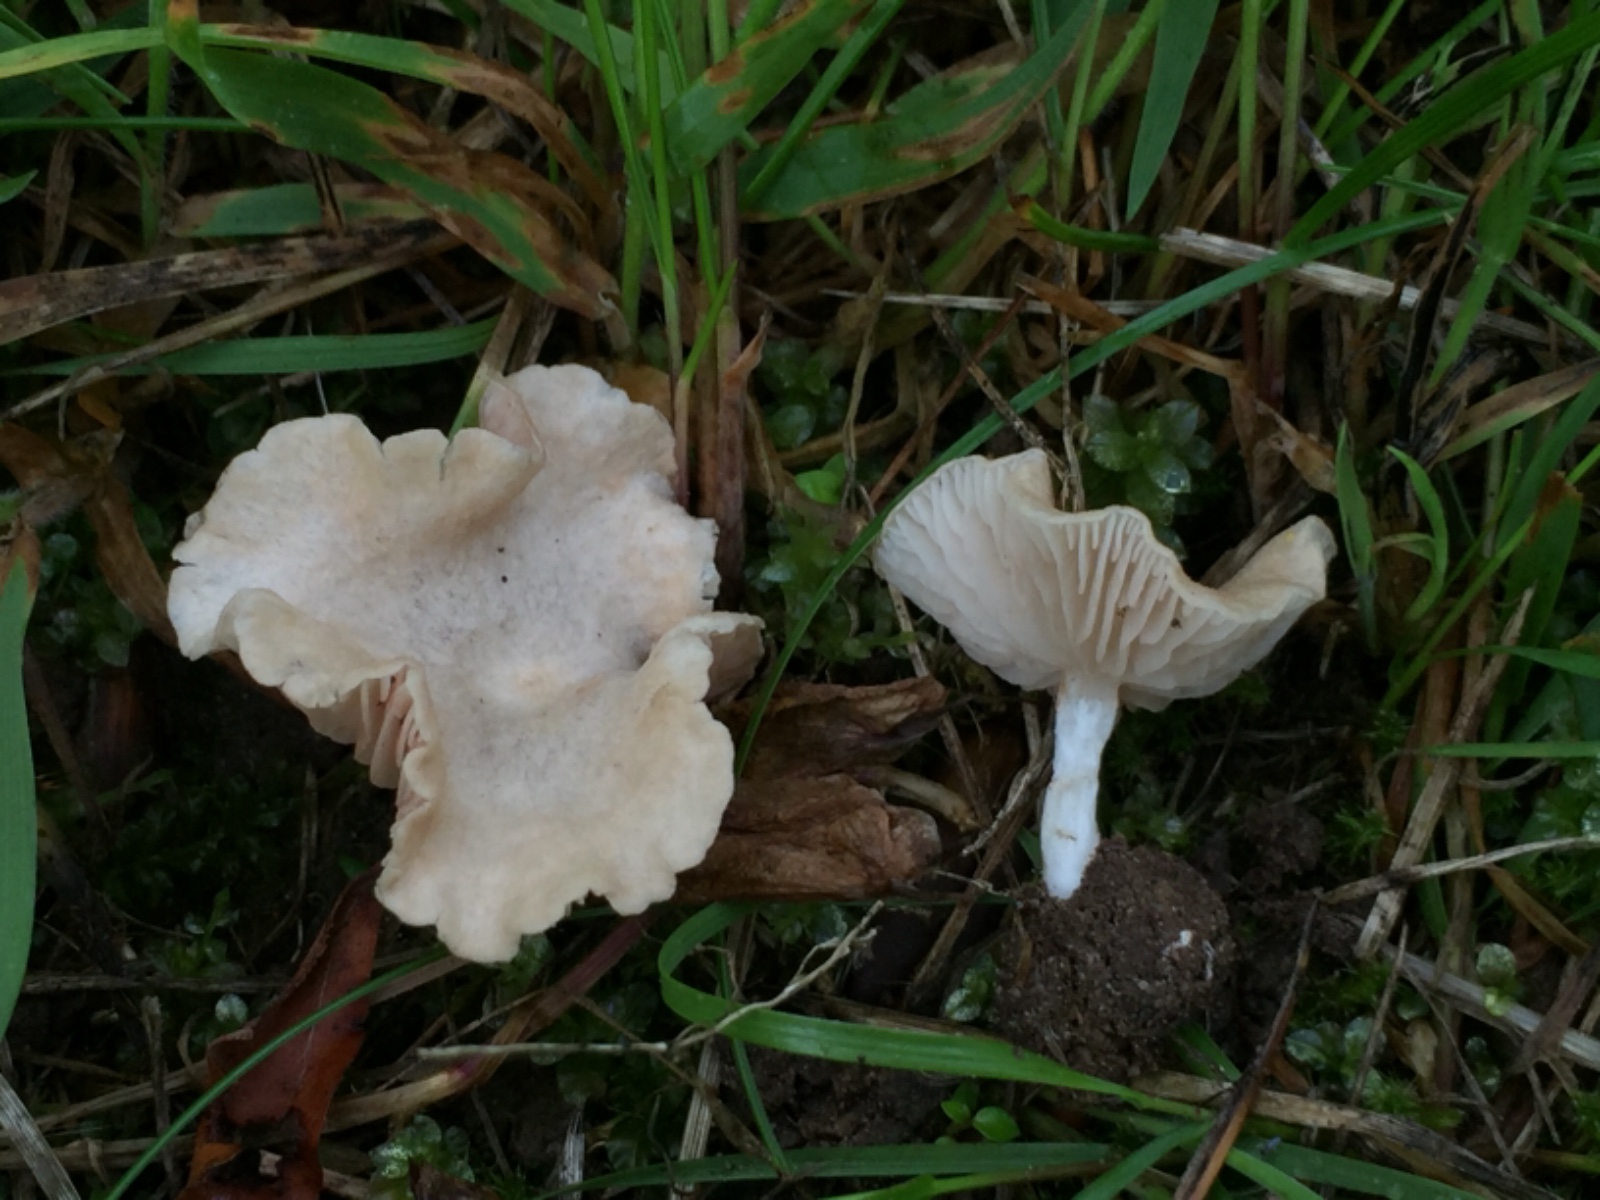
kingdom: Fungi
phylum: Basidiomycota
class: Agaricomycetes
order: Agaricales
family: Entolomataceae
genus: Entoloma
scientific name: Entoloma neglectum
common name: bleg rødblad
